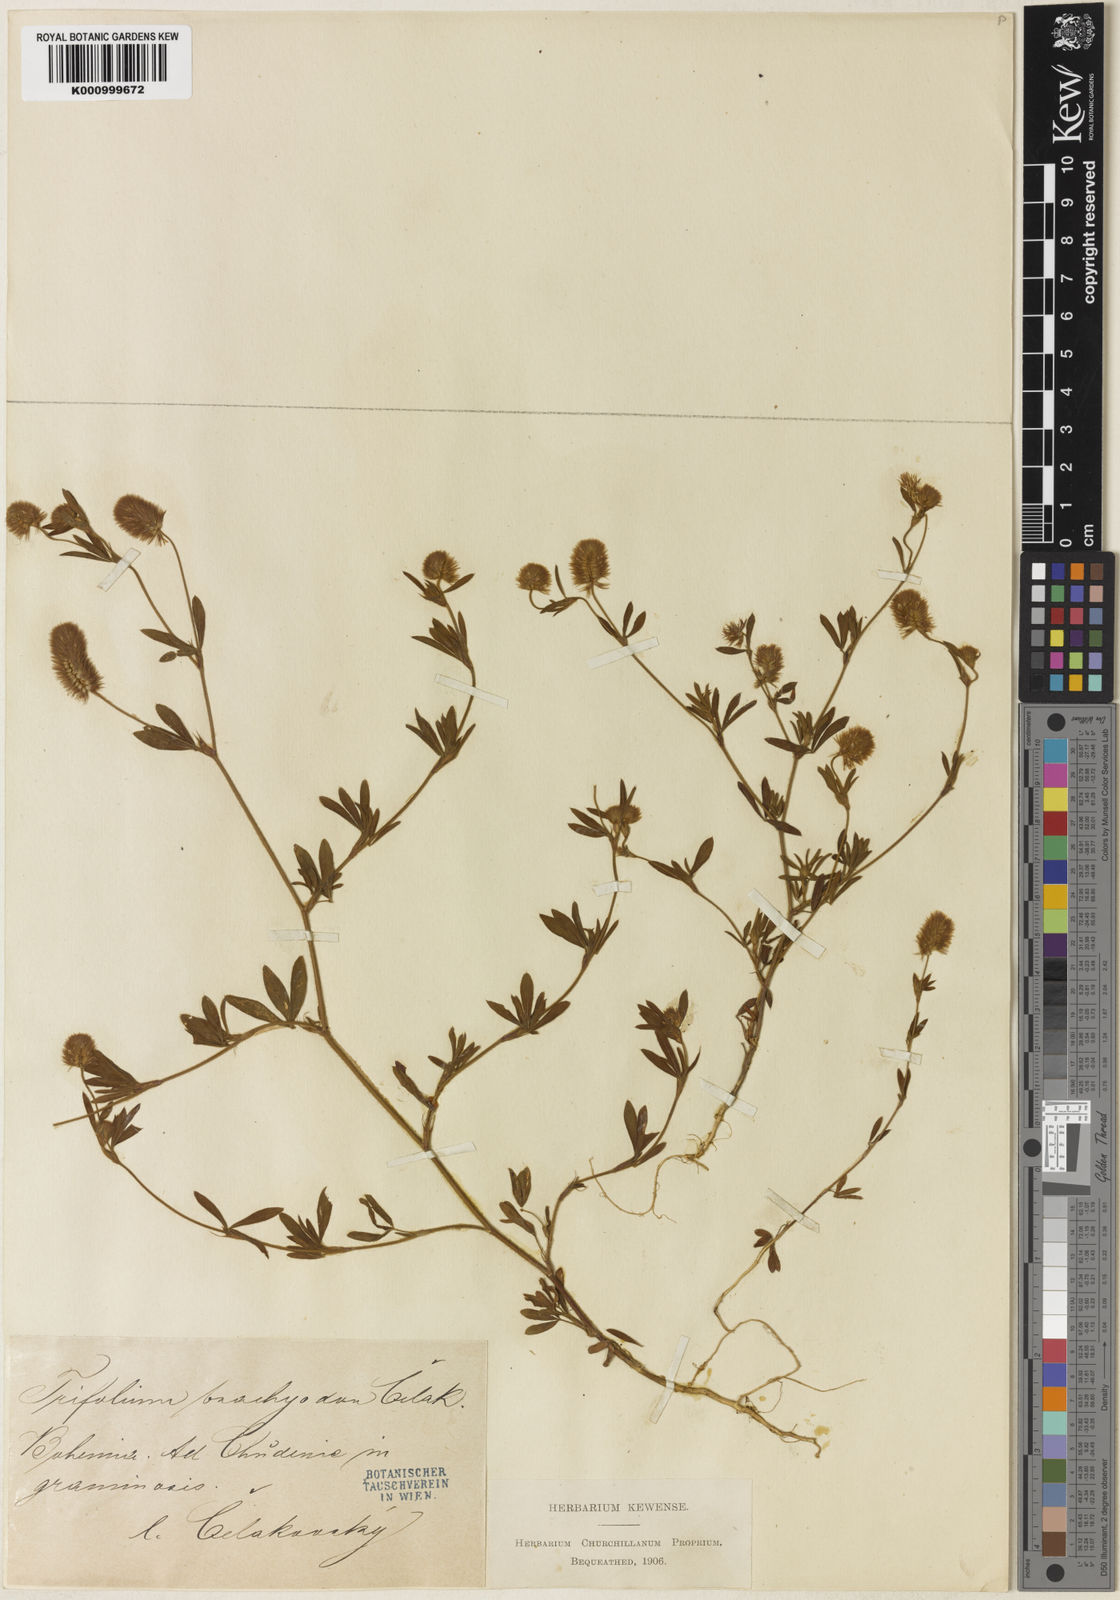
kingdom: Plantae
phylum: Tracheophyta
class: Magnoliopsida
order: Fabales
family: Fabaceae
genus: Trifolium
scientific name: Trifolium
